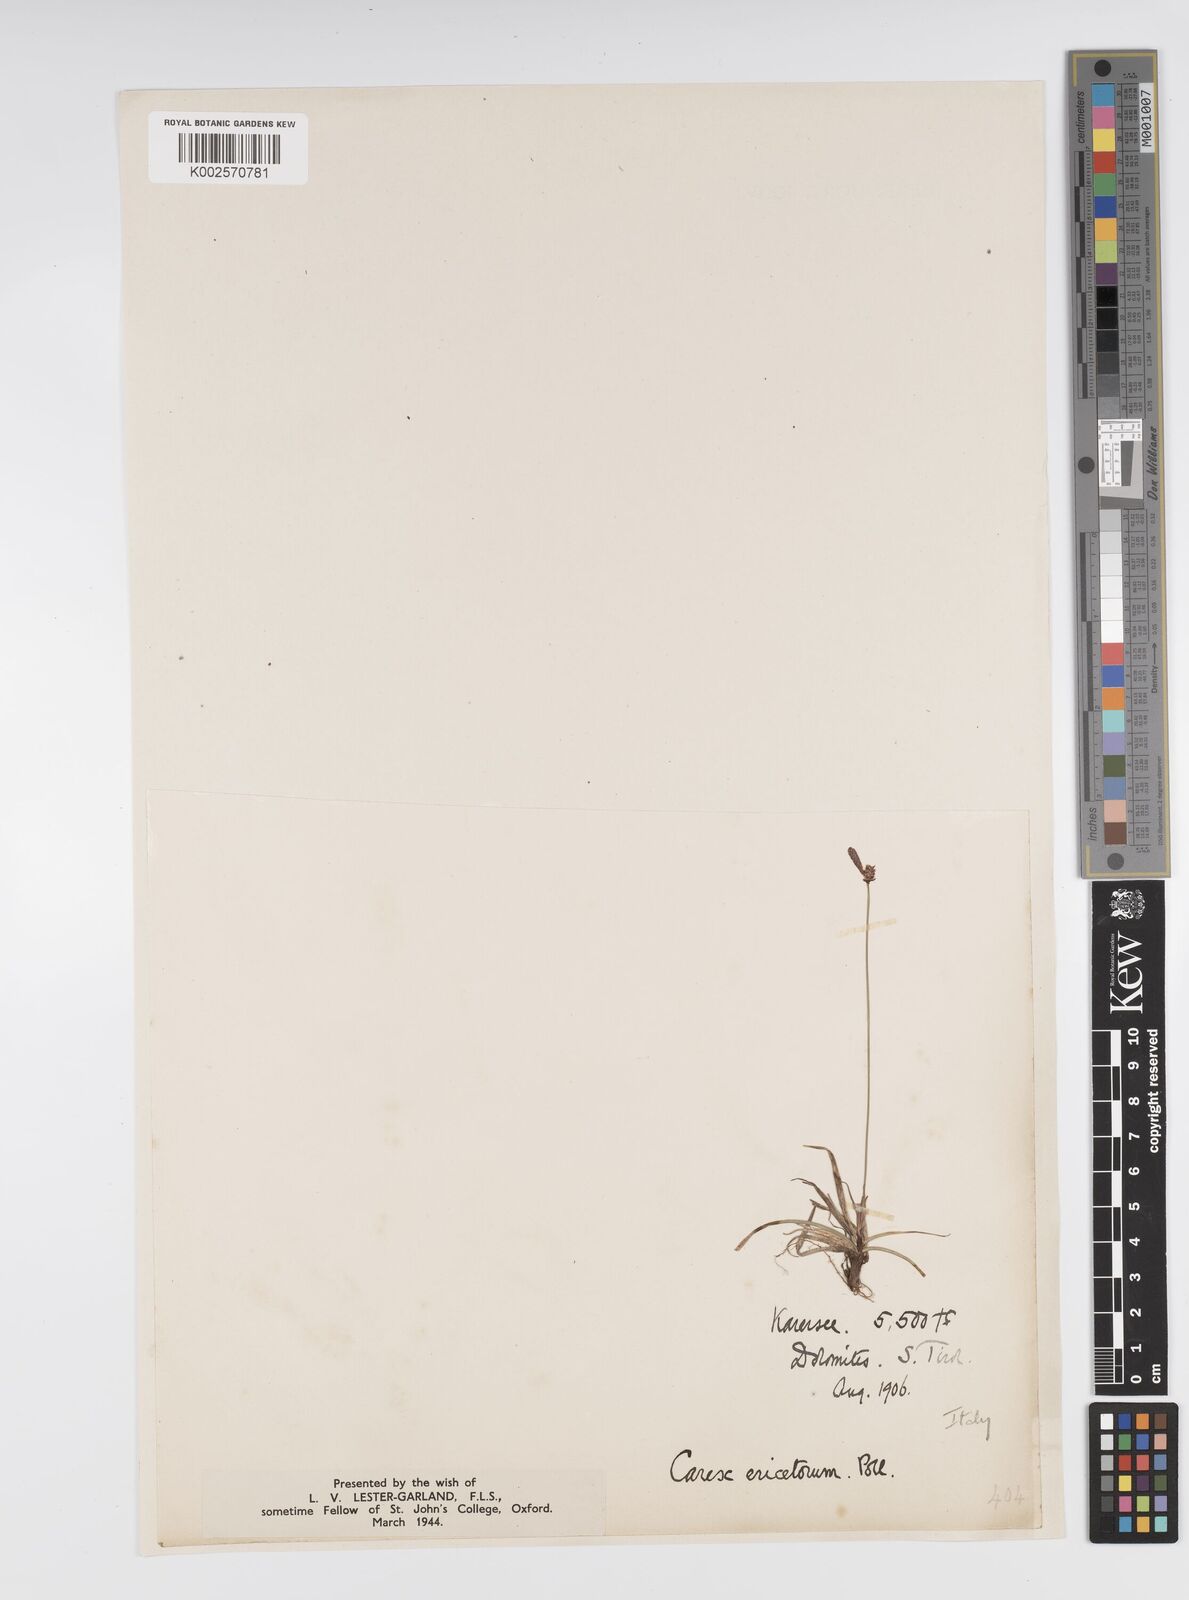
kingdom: Plantae
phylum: Tracheophyta
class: Liliopsida
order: Poales
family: Cyperaceae
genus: Carex
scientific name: Carex ericetorum
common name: Rare spring-sedge
